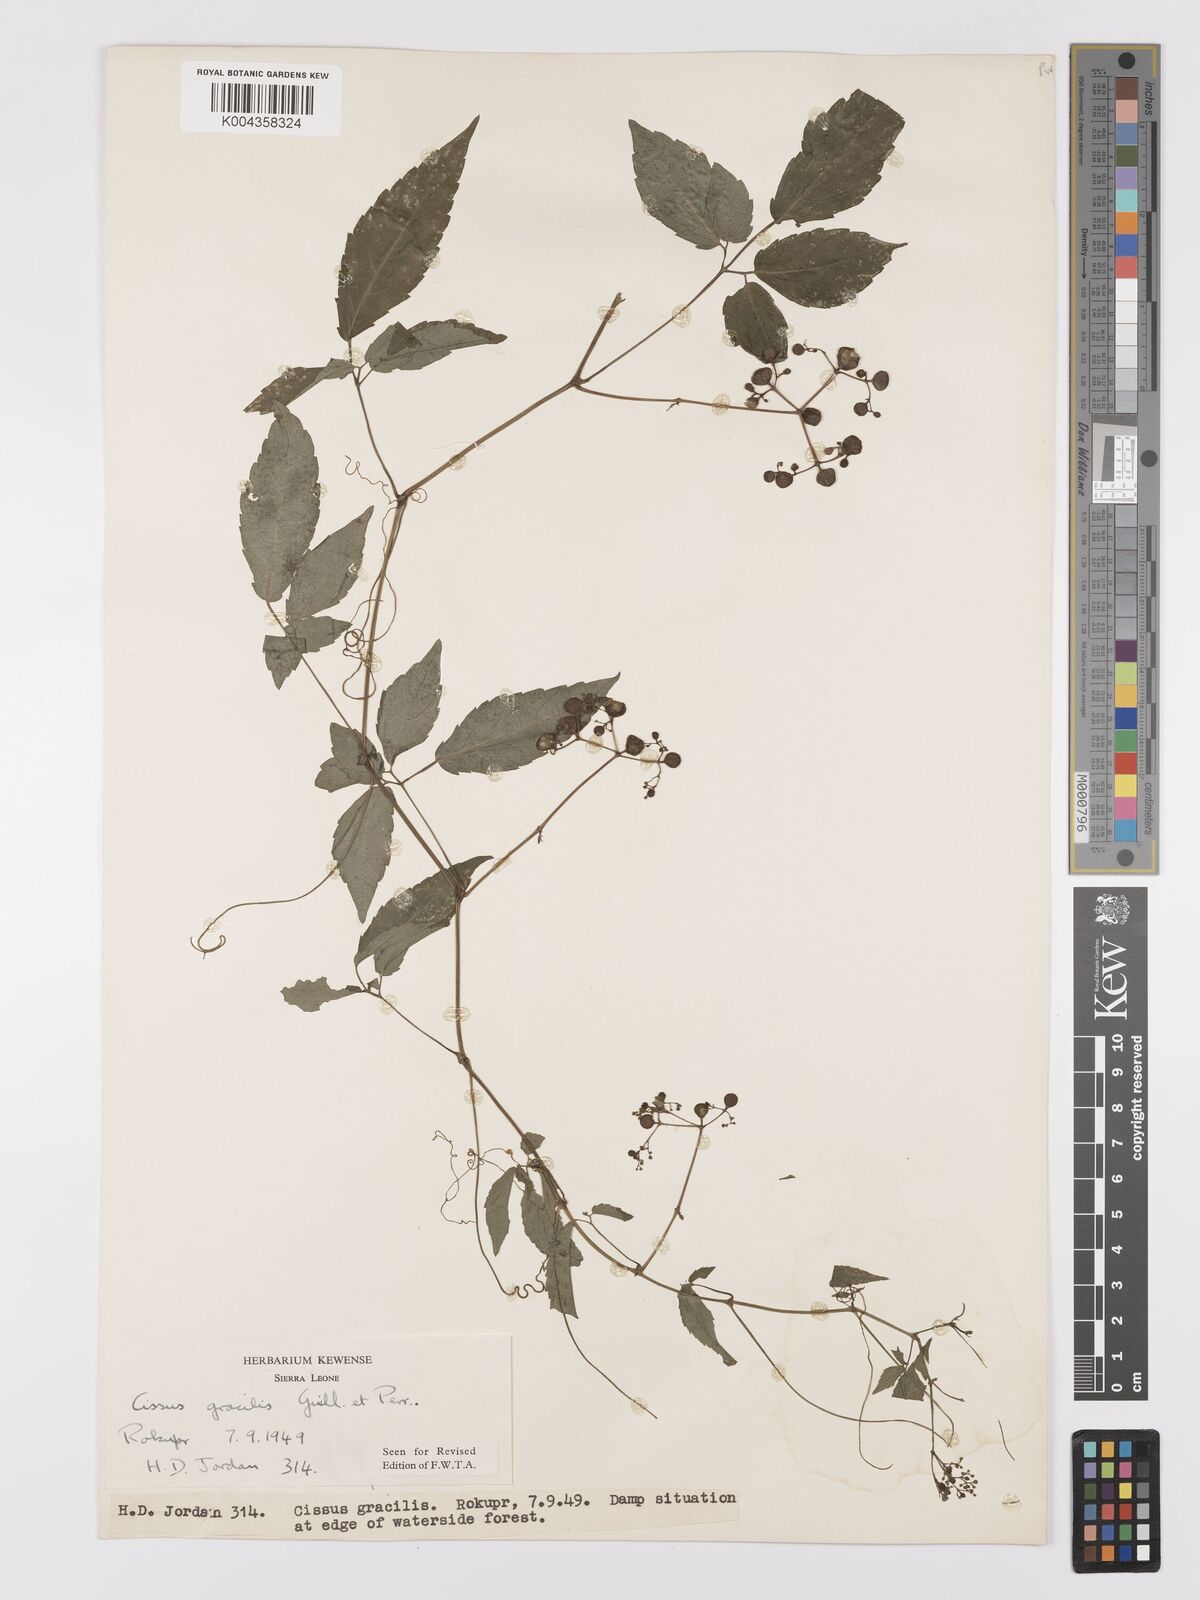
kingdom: Plantae
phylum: Tracheophyta
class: Magnoliopsida
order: Vitales
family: Vitaceae
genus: Afrocayratia
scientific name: Afrocayratia gracilis
